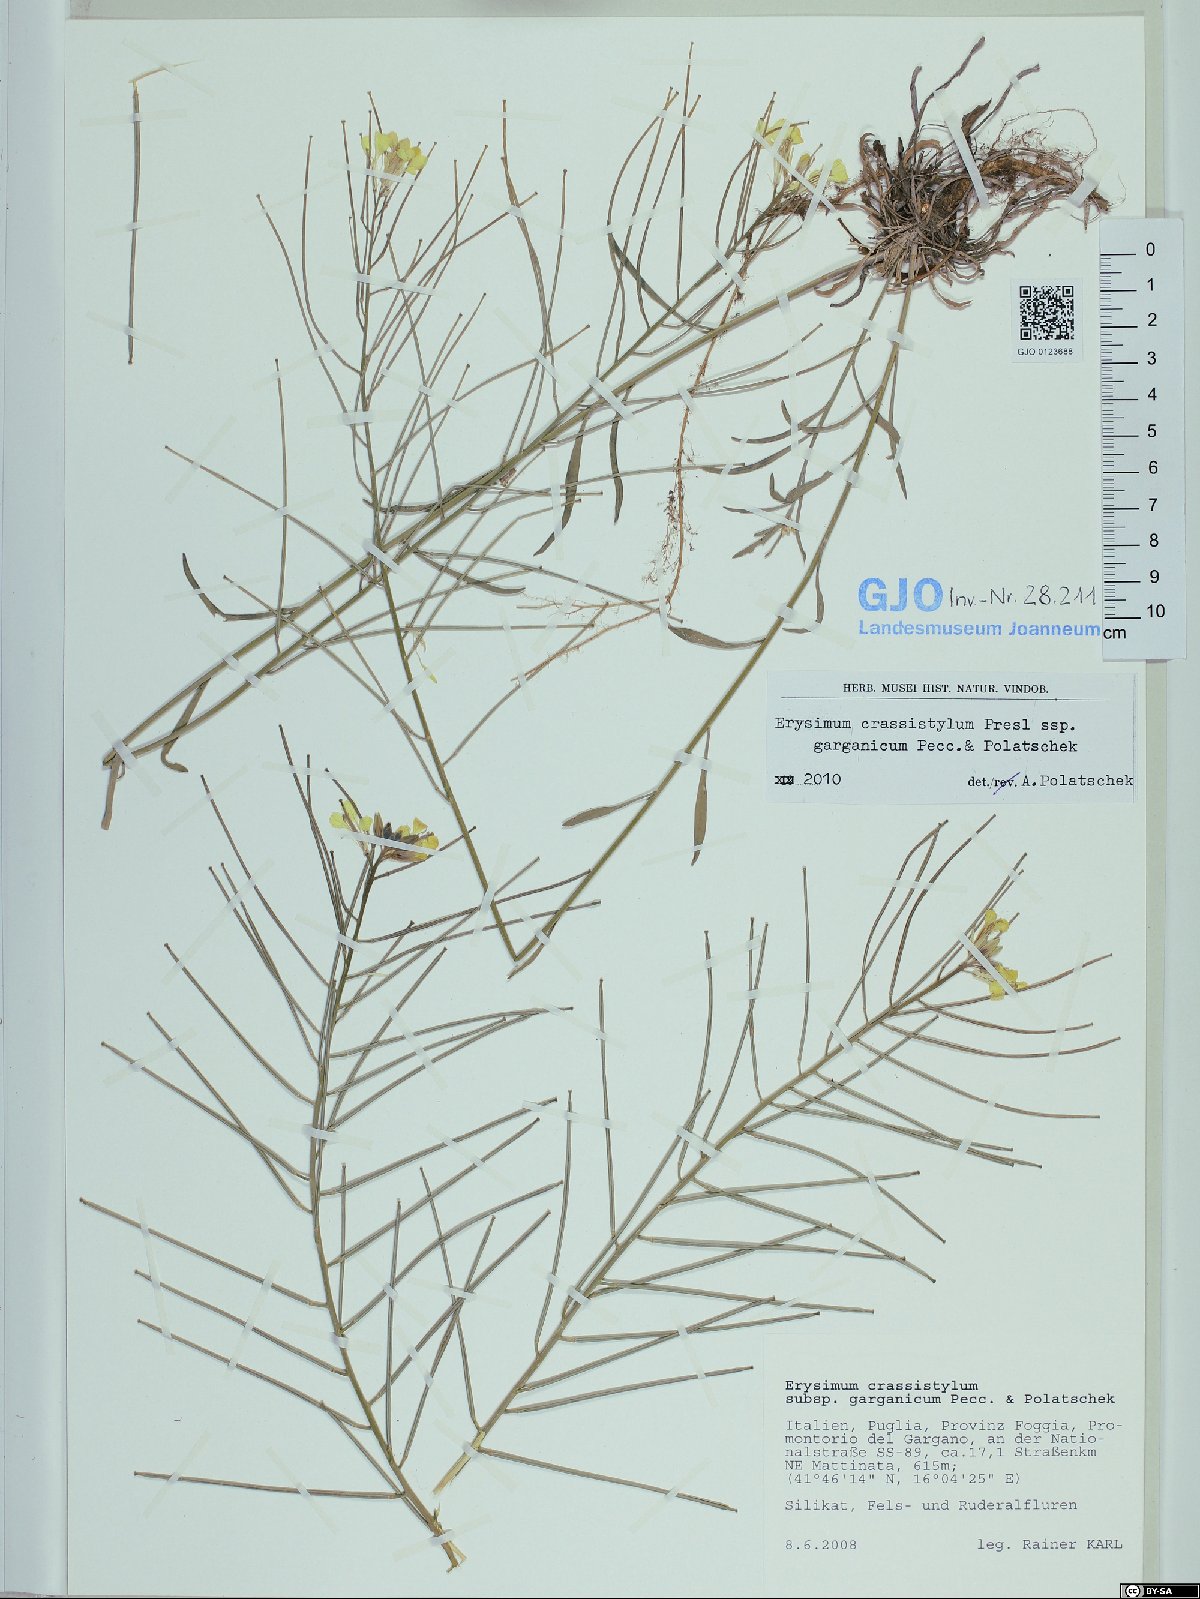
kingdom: Plantae
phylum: Tracheophyta
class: Magnoliopsida
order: Brassicales
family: Brassicaceae
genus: Erysimum
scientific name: Erysimum crassistylum
